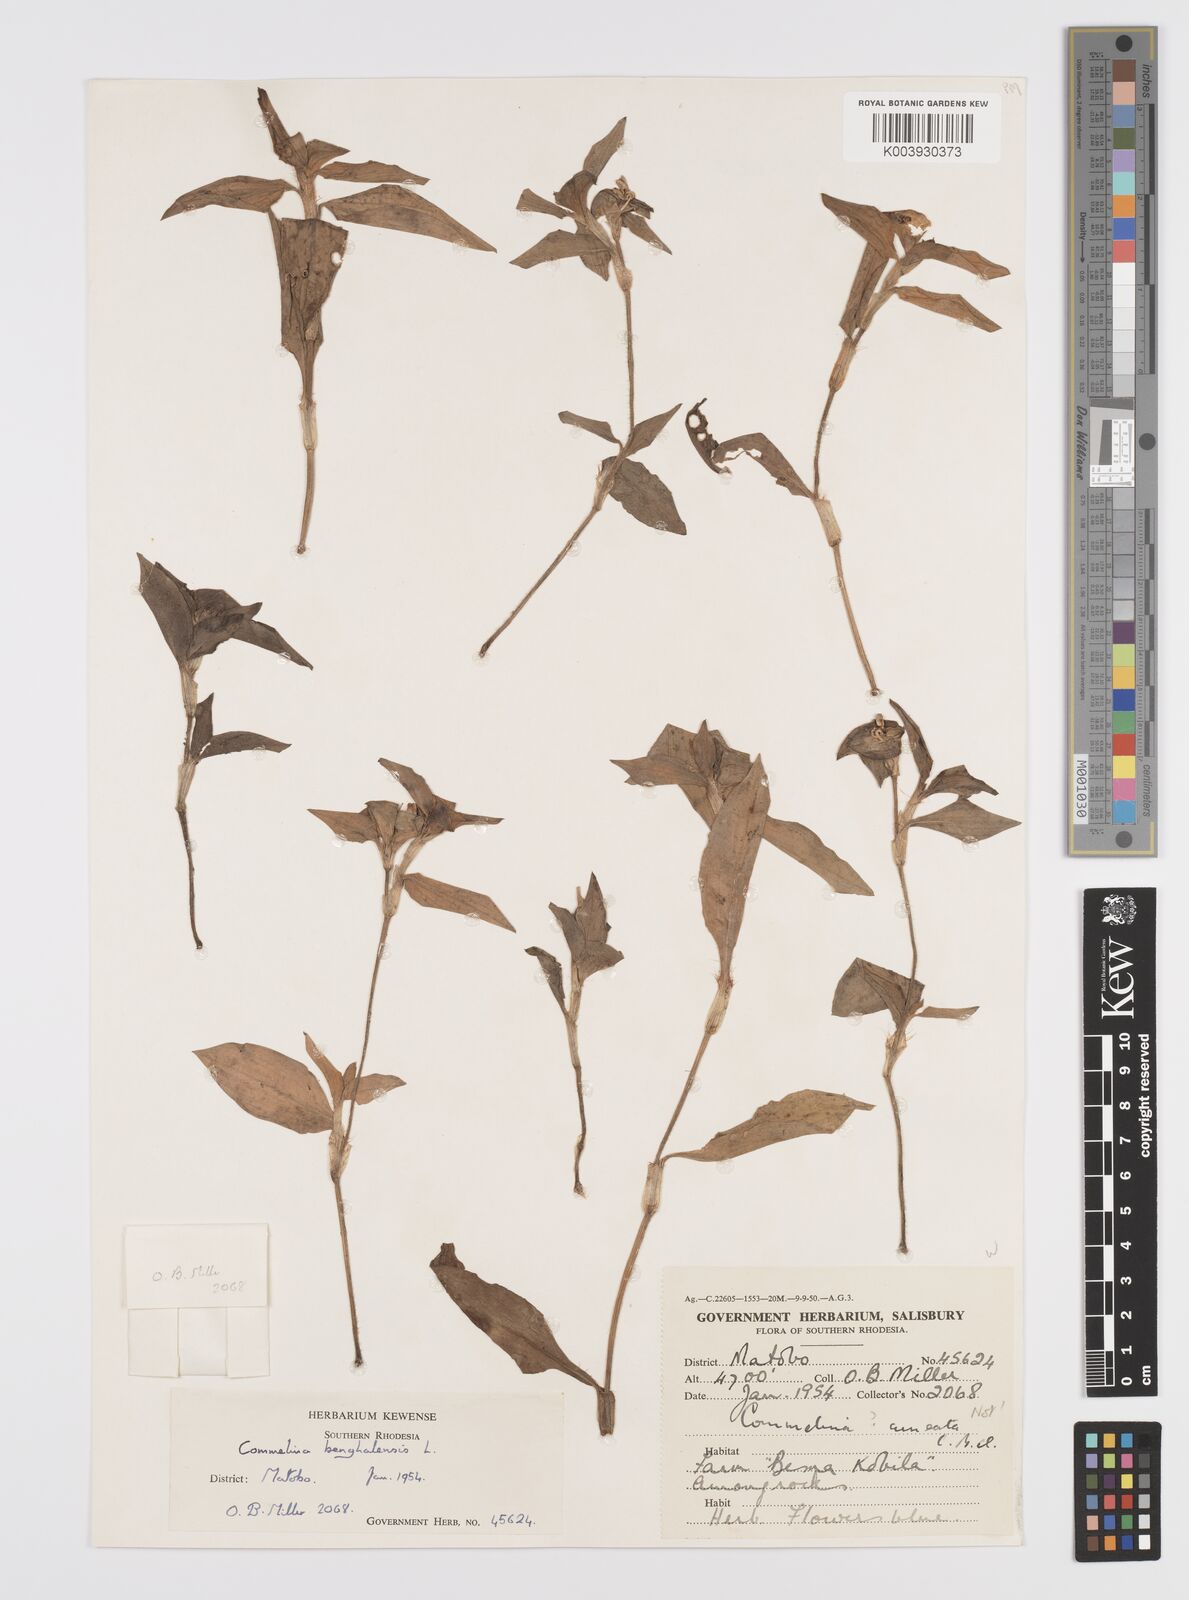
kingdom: Plantae
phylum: Tracheophyta
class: Liliopsida
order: Commelinales
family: Commelinaceae
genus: Commelina
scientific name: Commelina benghalensis
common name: Jio
